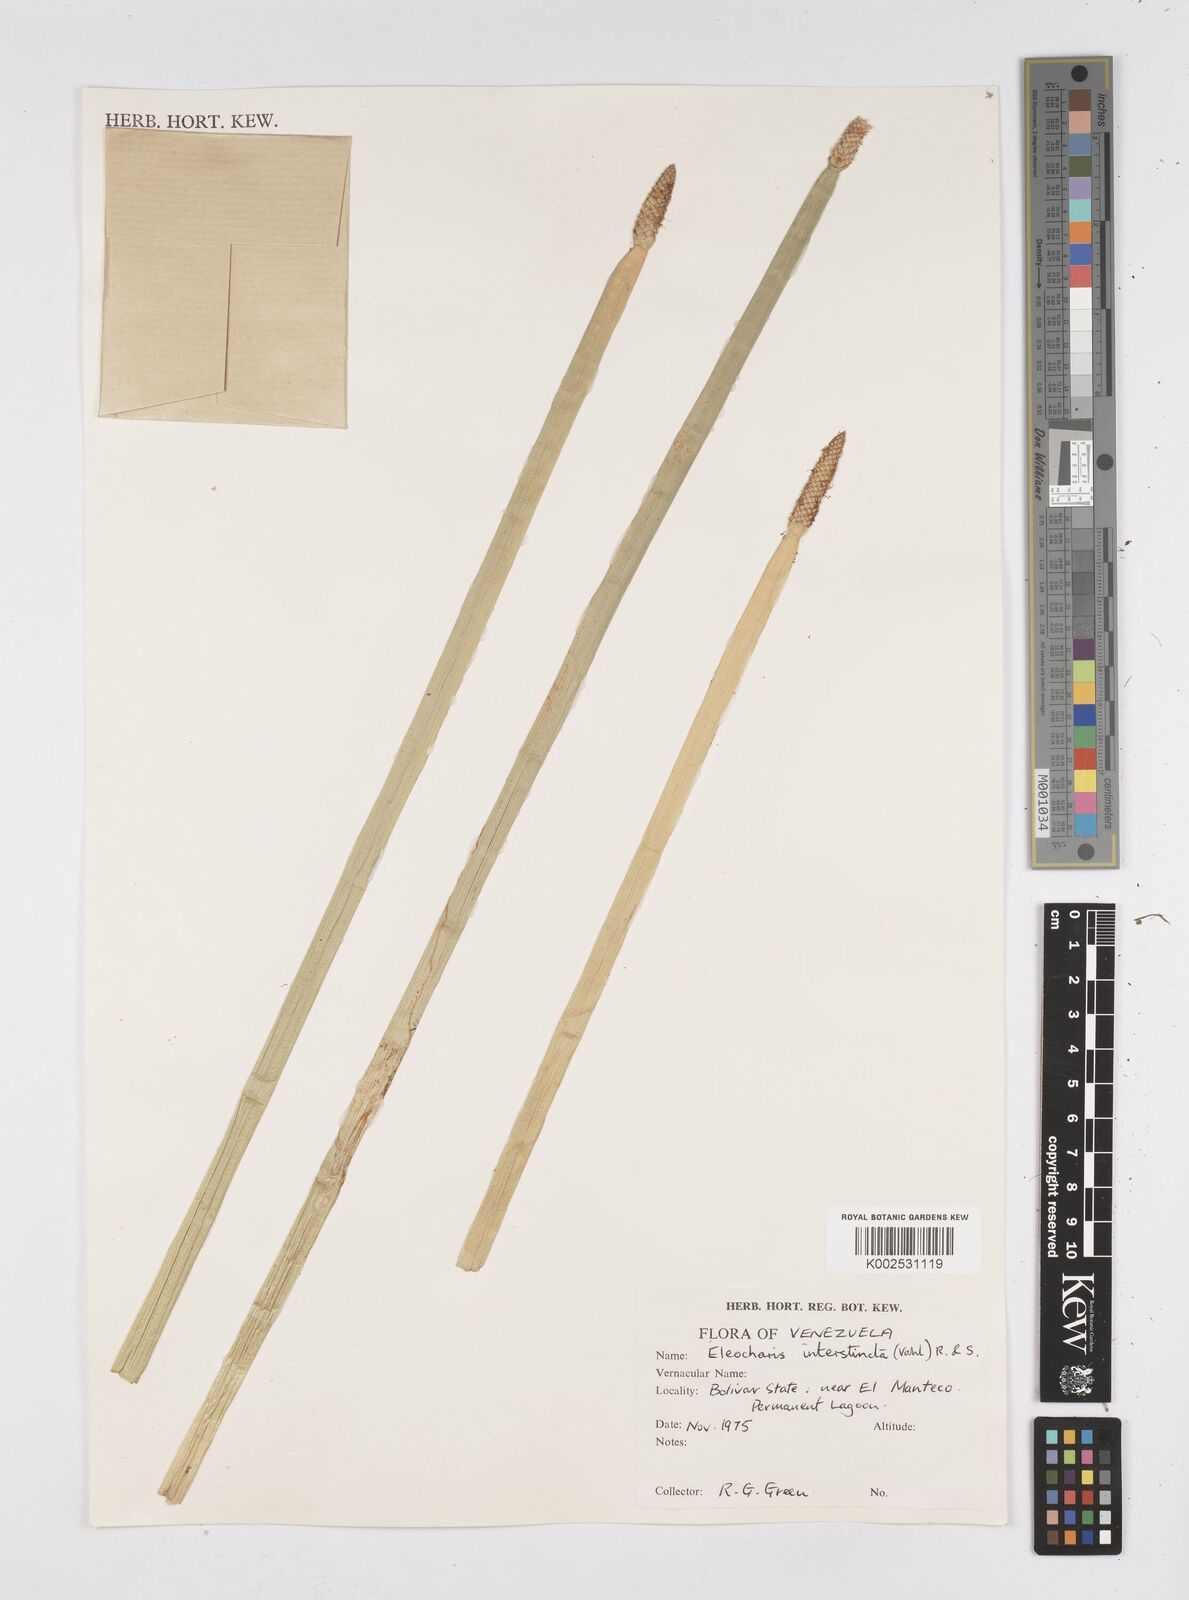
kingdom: Plantae
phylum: Tracheophyta
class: Liliopsida
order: Poales
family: Cyperaceae
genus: Eleocharis
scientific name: Eleocharis interstincta
